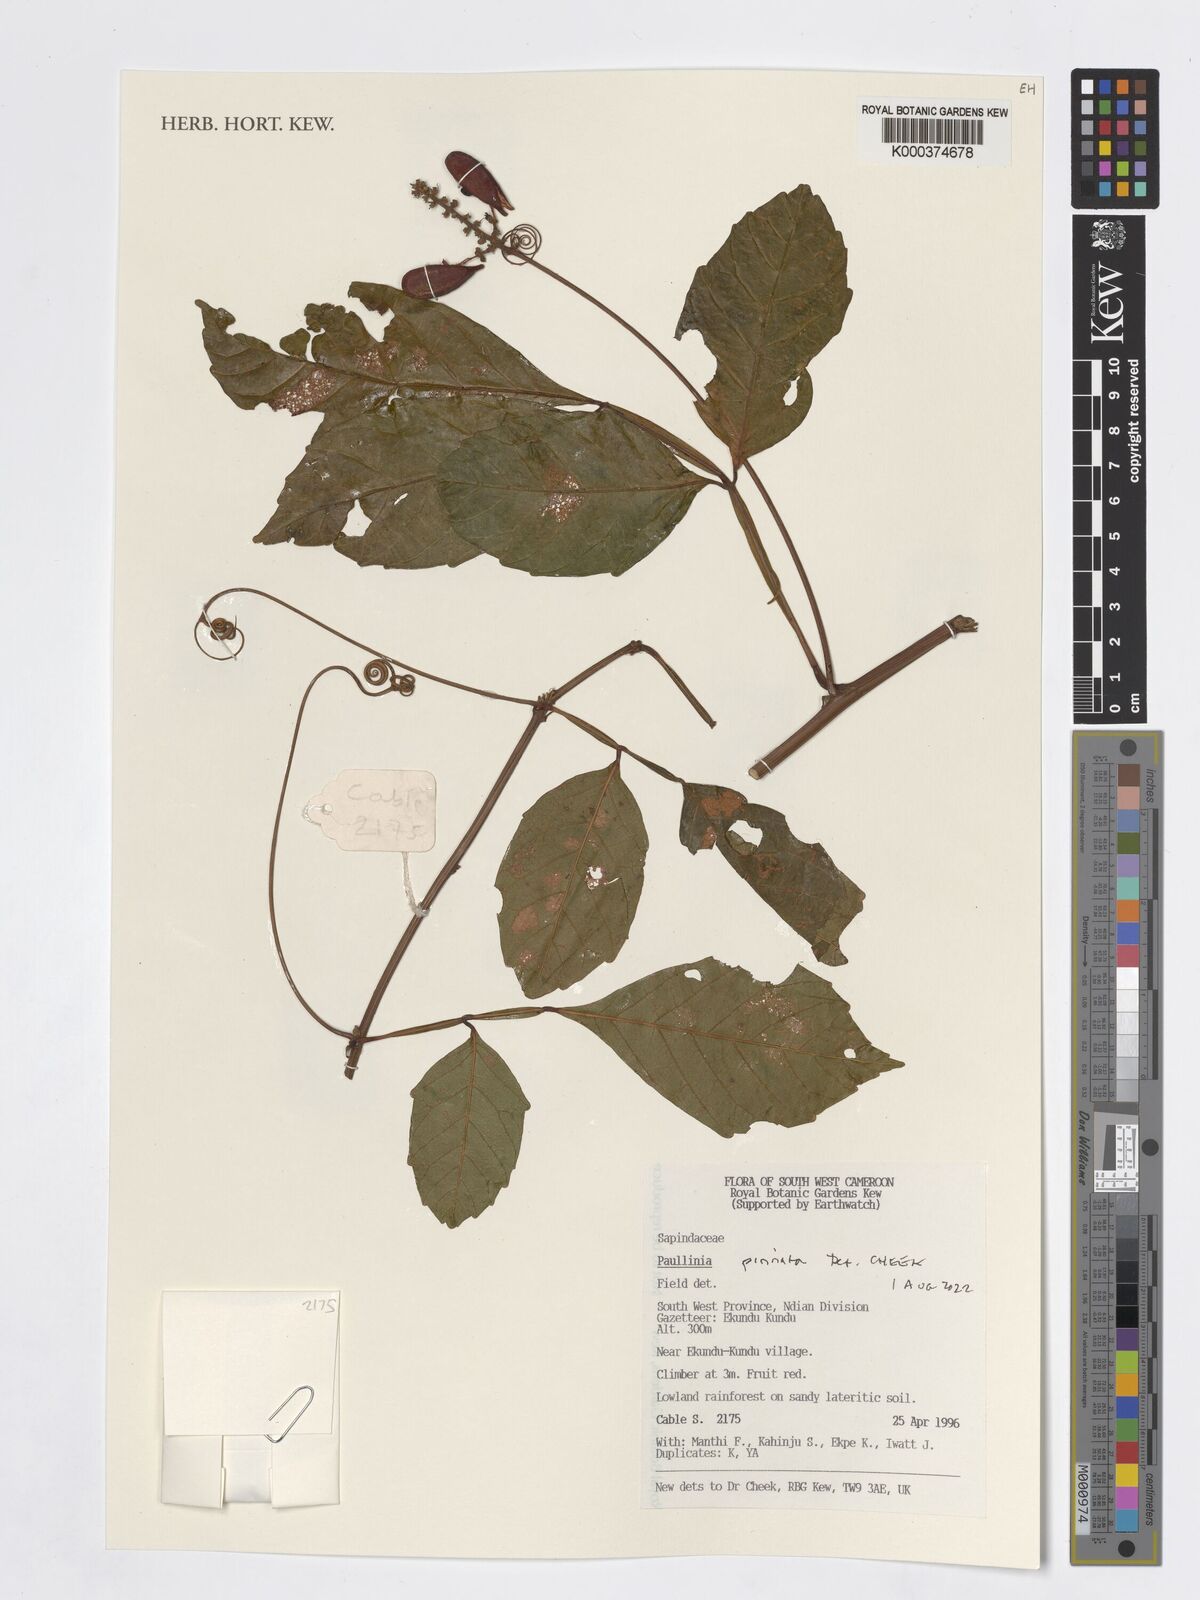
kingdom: Plantae
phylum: Tracheophyta
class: Magnoliopsida
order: Sapindales
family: Sapindaceae
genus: Paullinia
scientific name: Paullinia pinnata
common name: Barbasco
